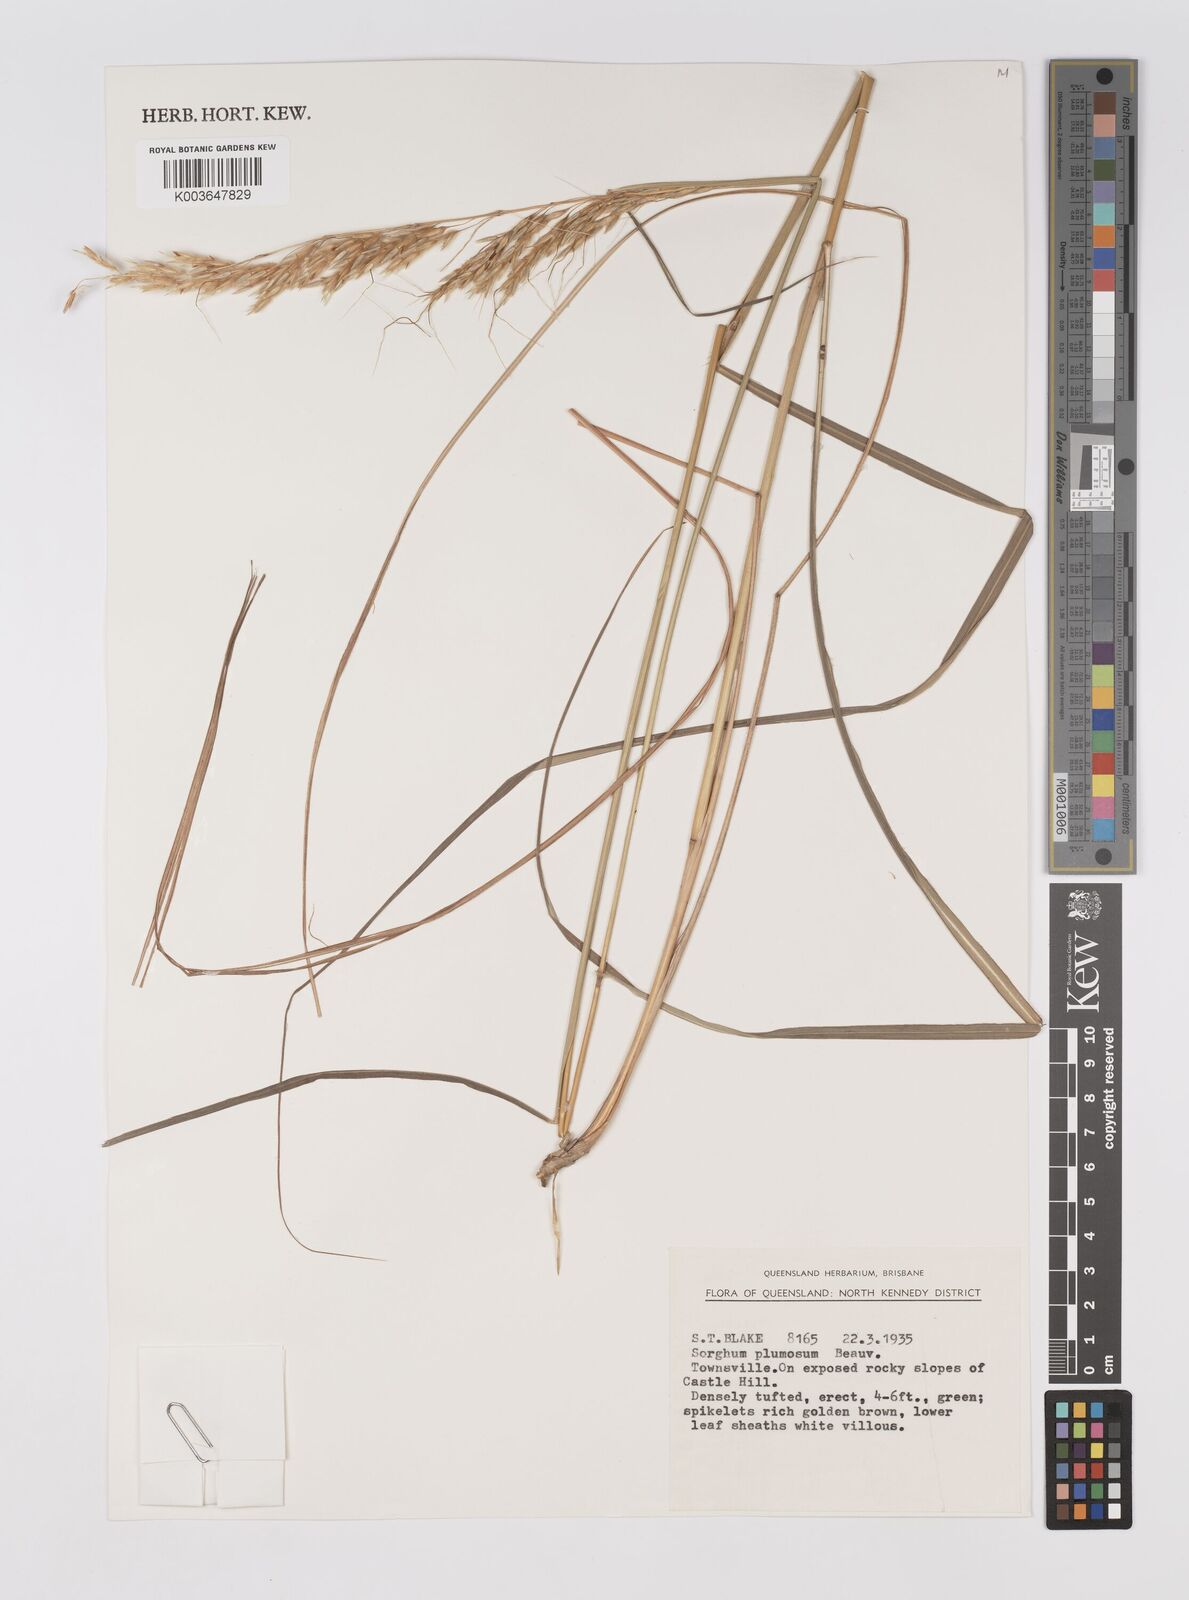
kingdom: Plantae
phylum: Tracheophyta
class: Liliopsida
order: Poales
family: Poaceae
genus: Sarga
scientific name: Sarga plumosa
